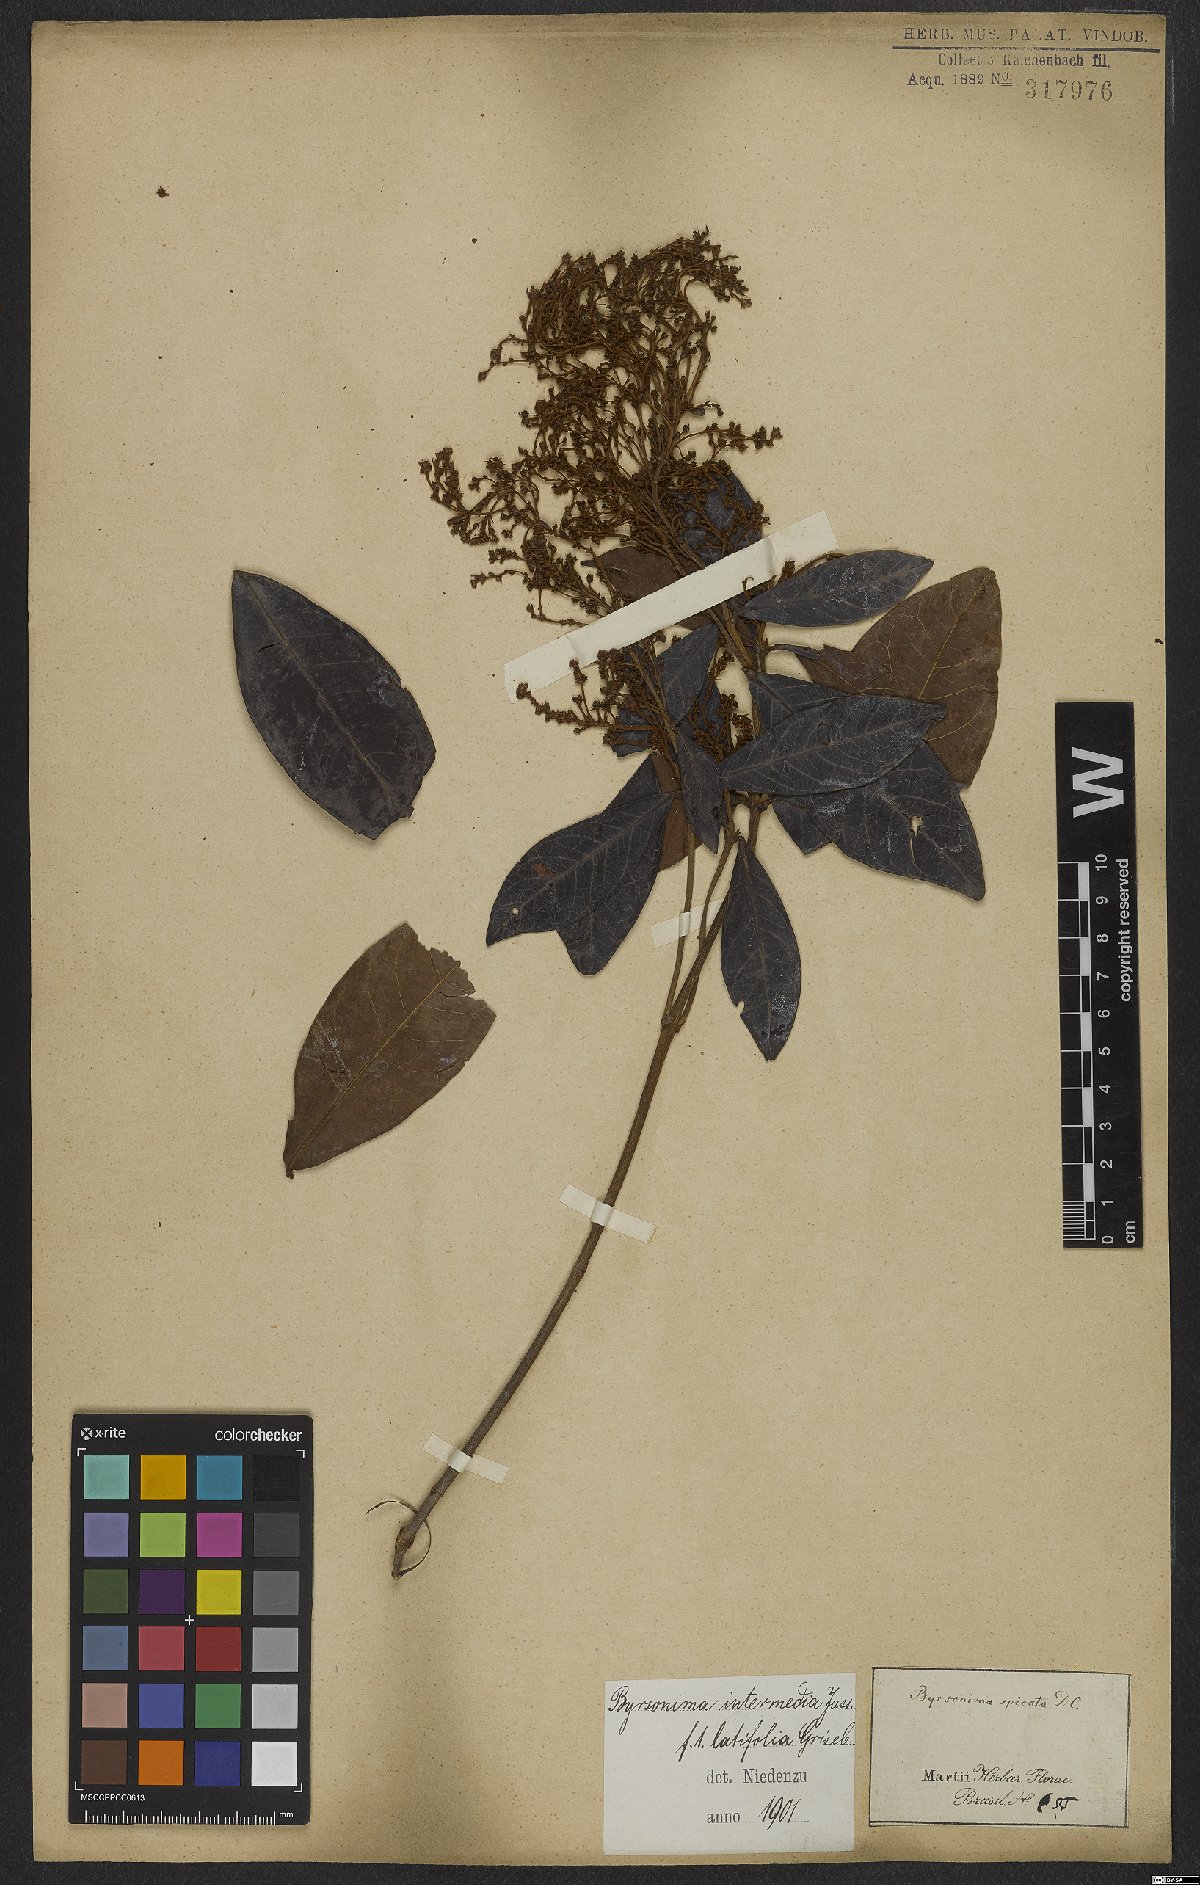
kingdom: Plantae
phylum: Tracheophyta
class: Magnoliopsida
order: Malpighiales
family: Malpighiaceae
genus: Byrsonima
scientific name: Byrsonima intermedia
